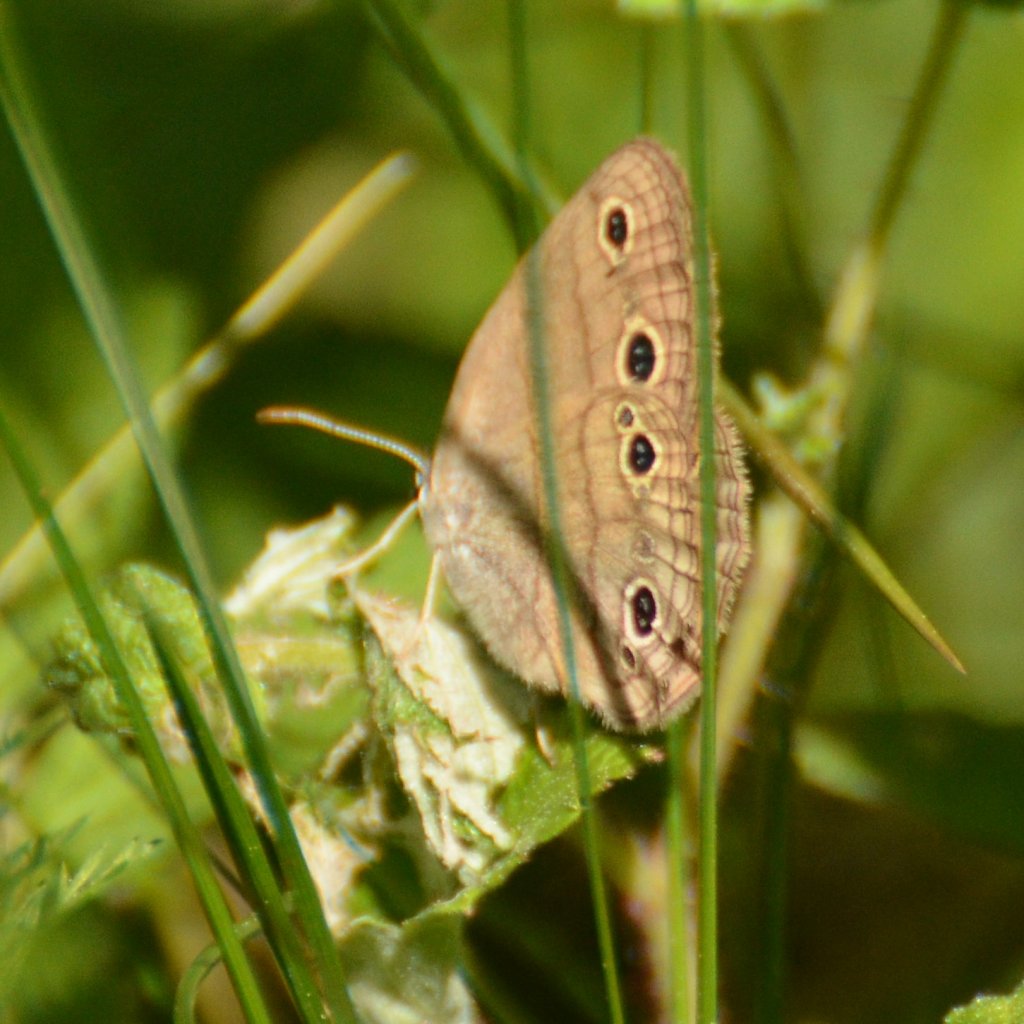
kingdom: Animalia
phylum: Arthropoda
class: Insecta
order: Lepidoptera
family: Nymphalidae
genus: Euptychia
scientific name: Euptychia cymela
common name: Little Wood Satyr
